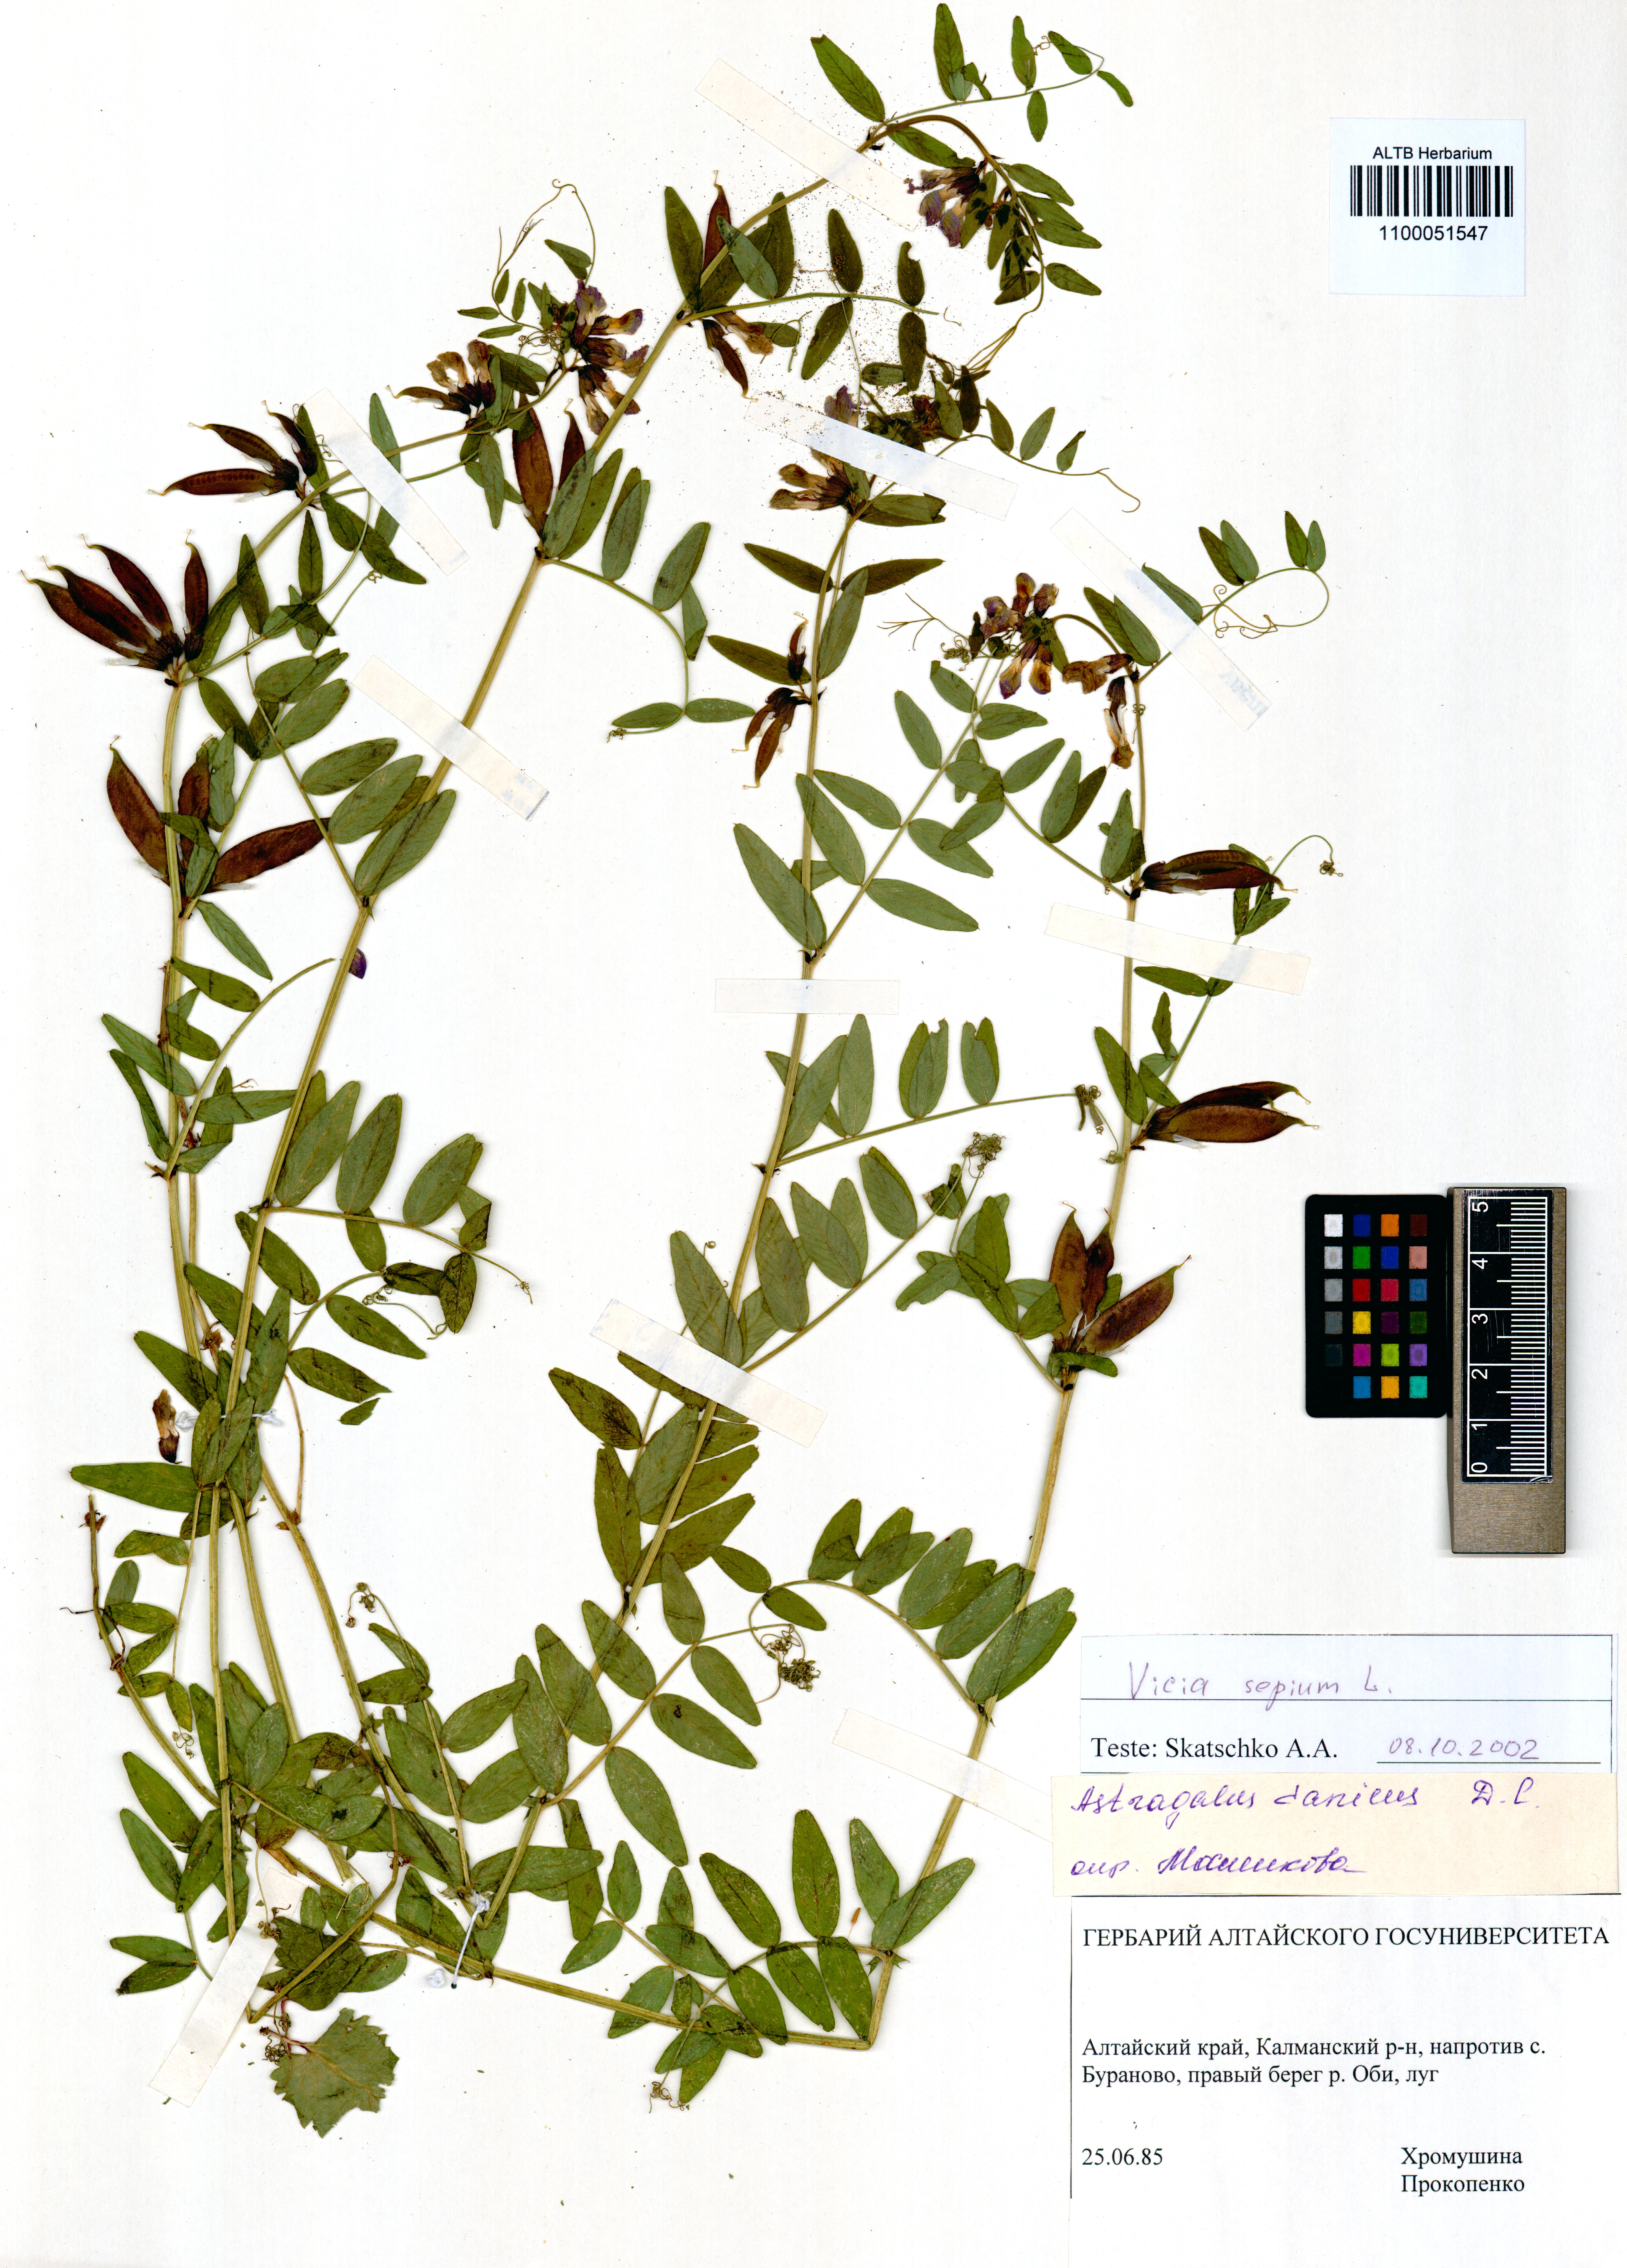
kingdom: Plantae
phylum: Tracheophyta
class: Magnoliopsida
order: Fabales
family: Fabaceae
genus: Vicia
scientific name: Vicia sepium
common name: Bush vetch
